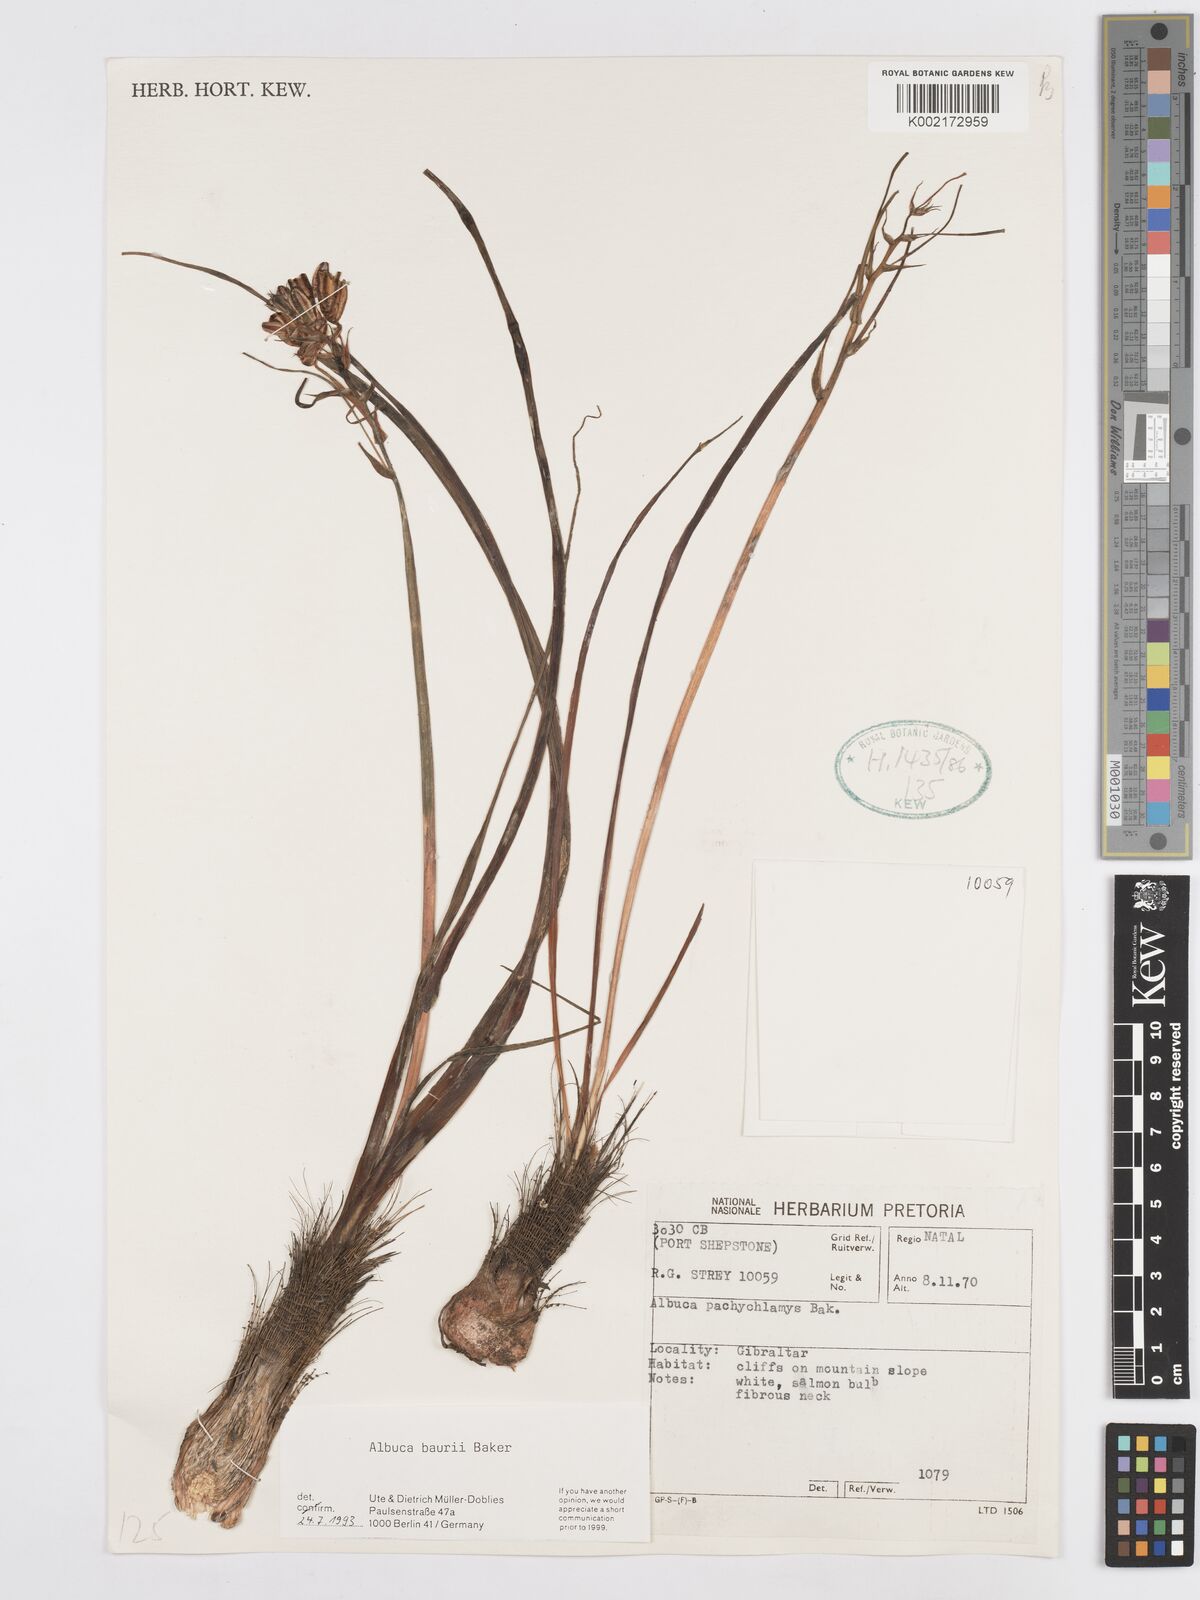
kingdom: Plantae
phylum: Tracheophyta
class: Liliopsida
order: Asparagales
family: Asparagaceae
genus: Albuca
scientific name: Albuca setosa
